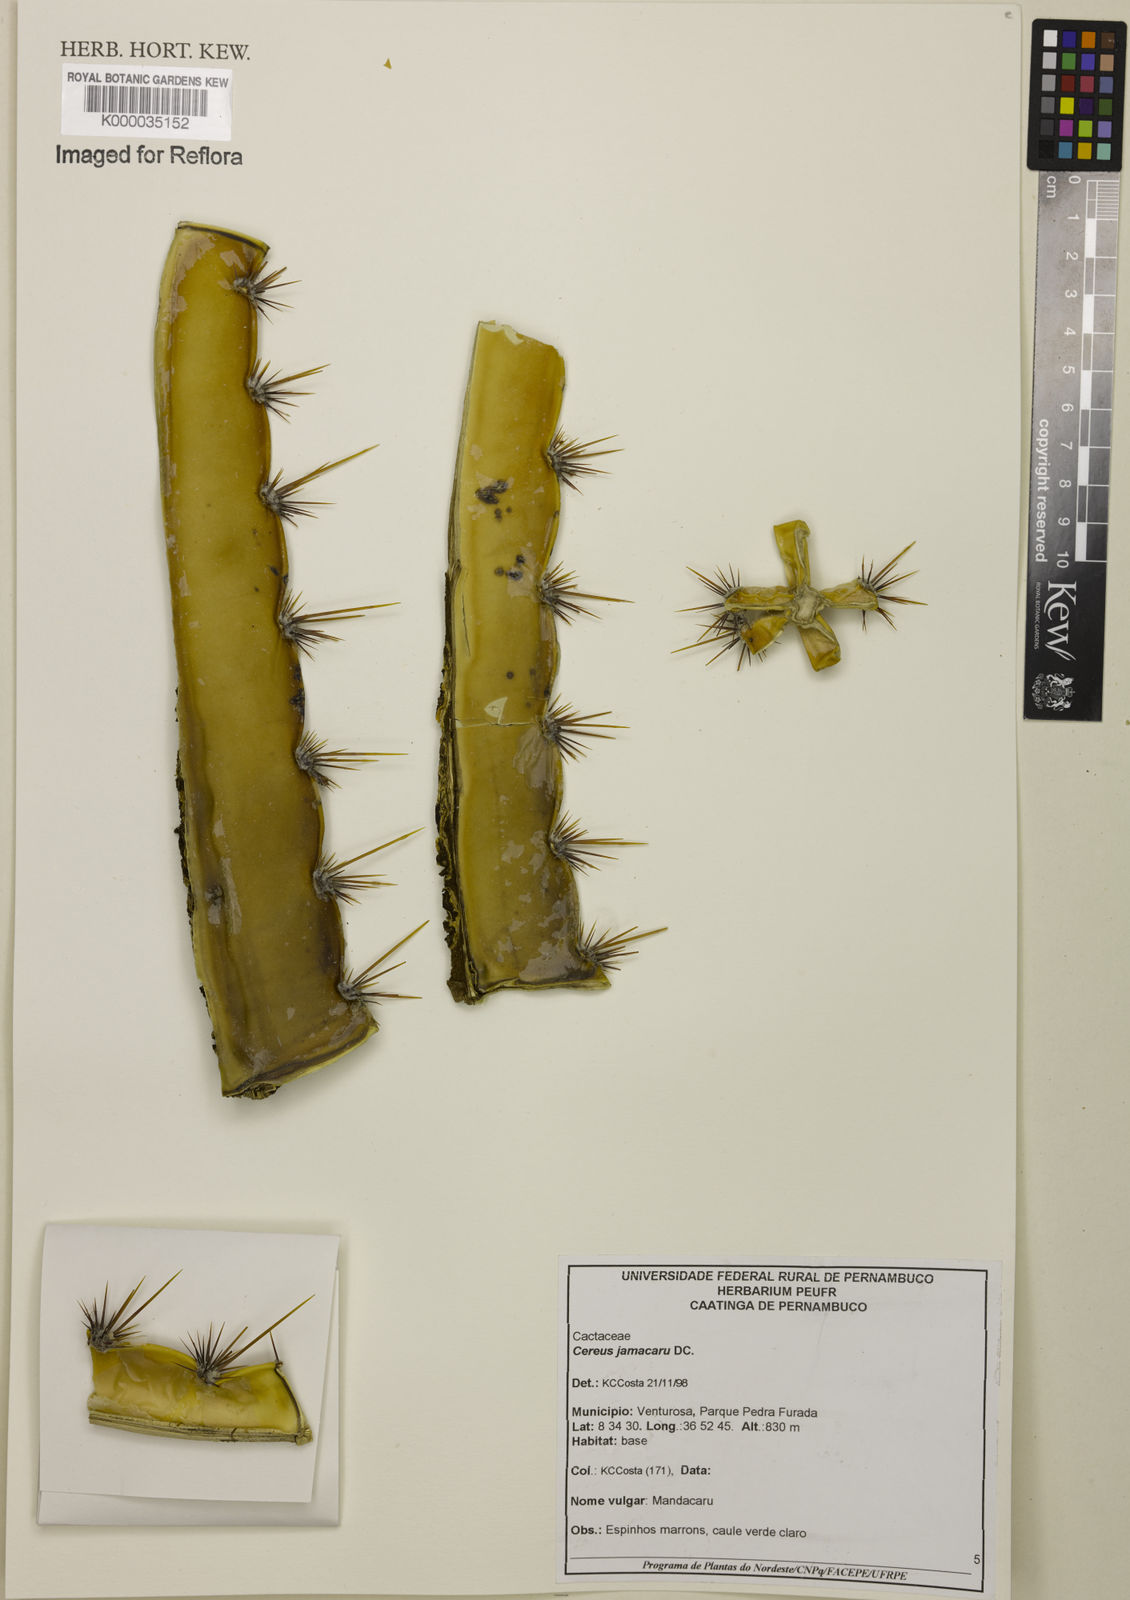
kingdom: Plantae
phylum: Tracheophyta
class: Magnoliopsida
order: Caryophyllales
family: Cactaceae
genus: Cereus
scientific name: Cereus jamacaru
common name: Queen-of-the-night
